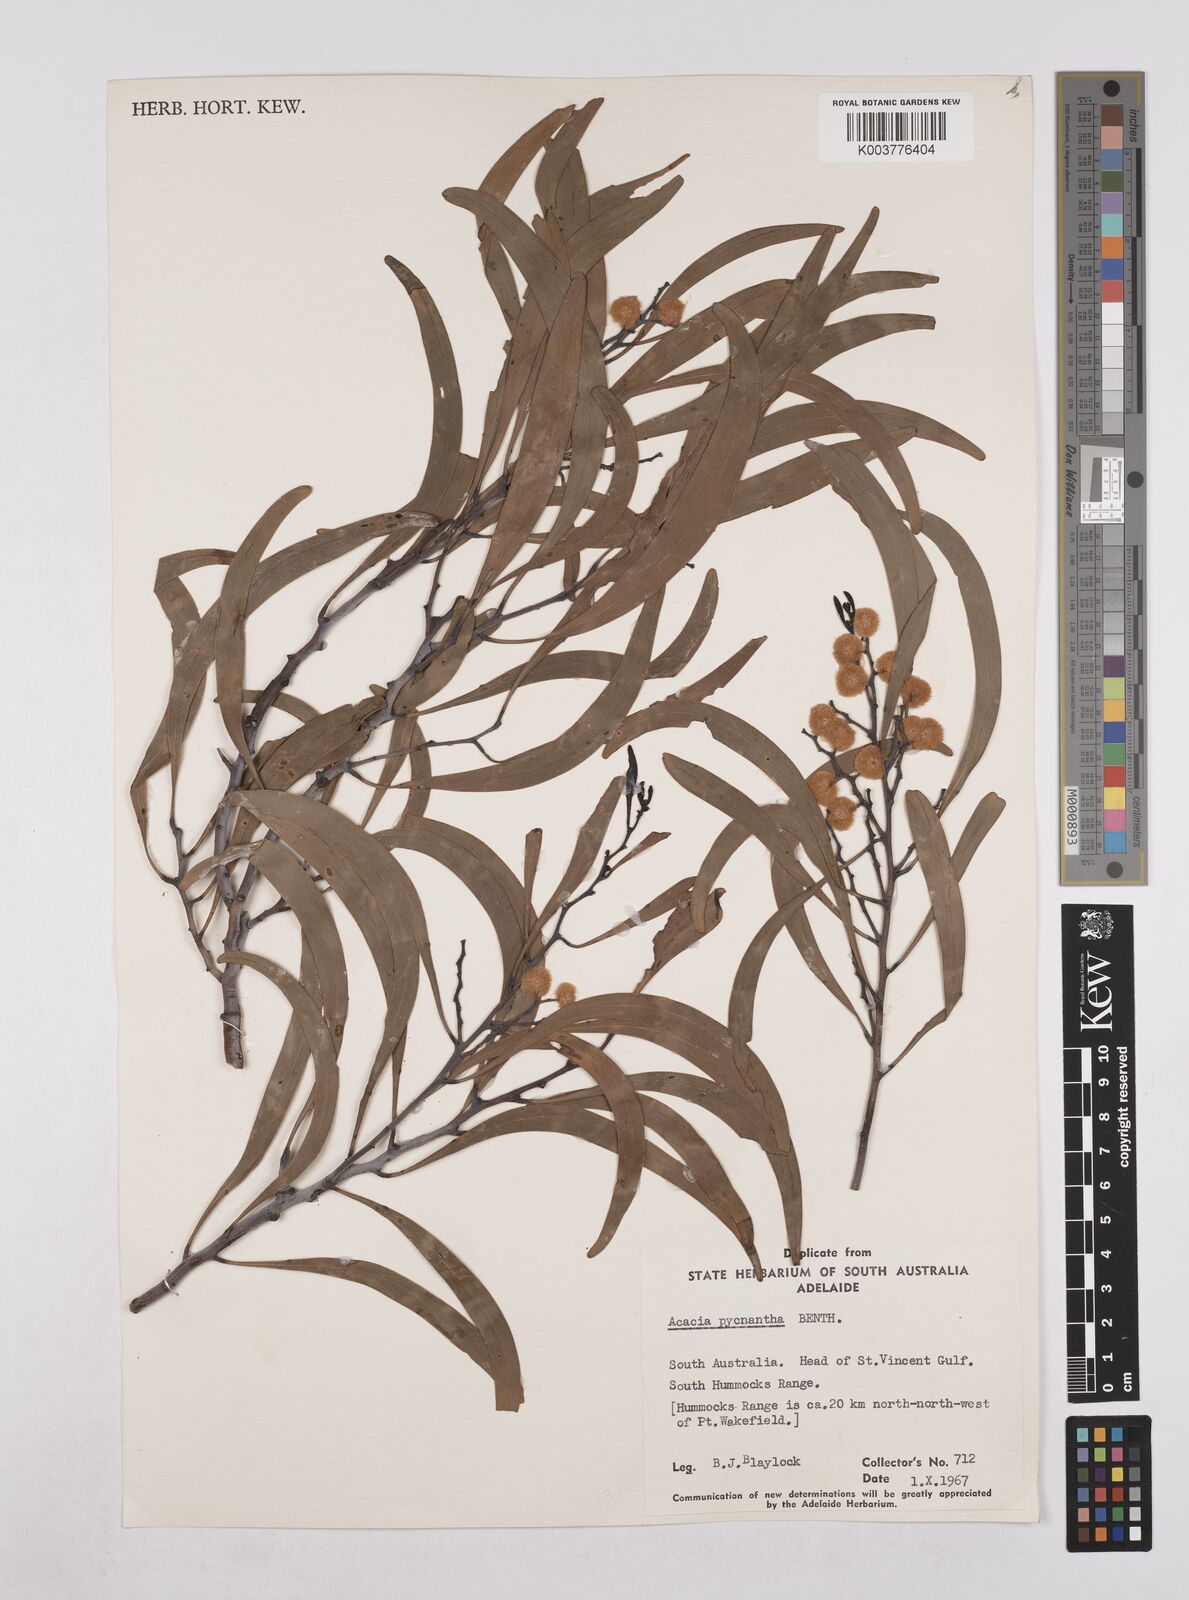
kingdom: Plantae
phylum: Tracheophyta
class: Magnoliopsida
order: Fabales
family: Fabaceae
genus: Acacia
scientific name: Acacia pycnantha
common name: Golden wattle
